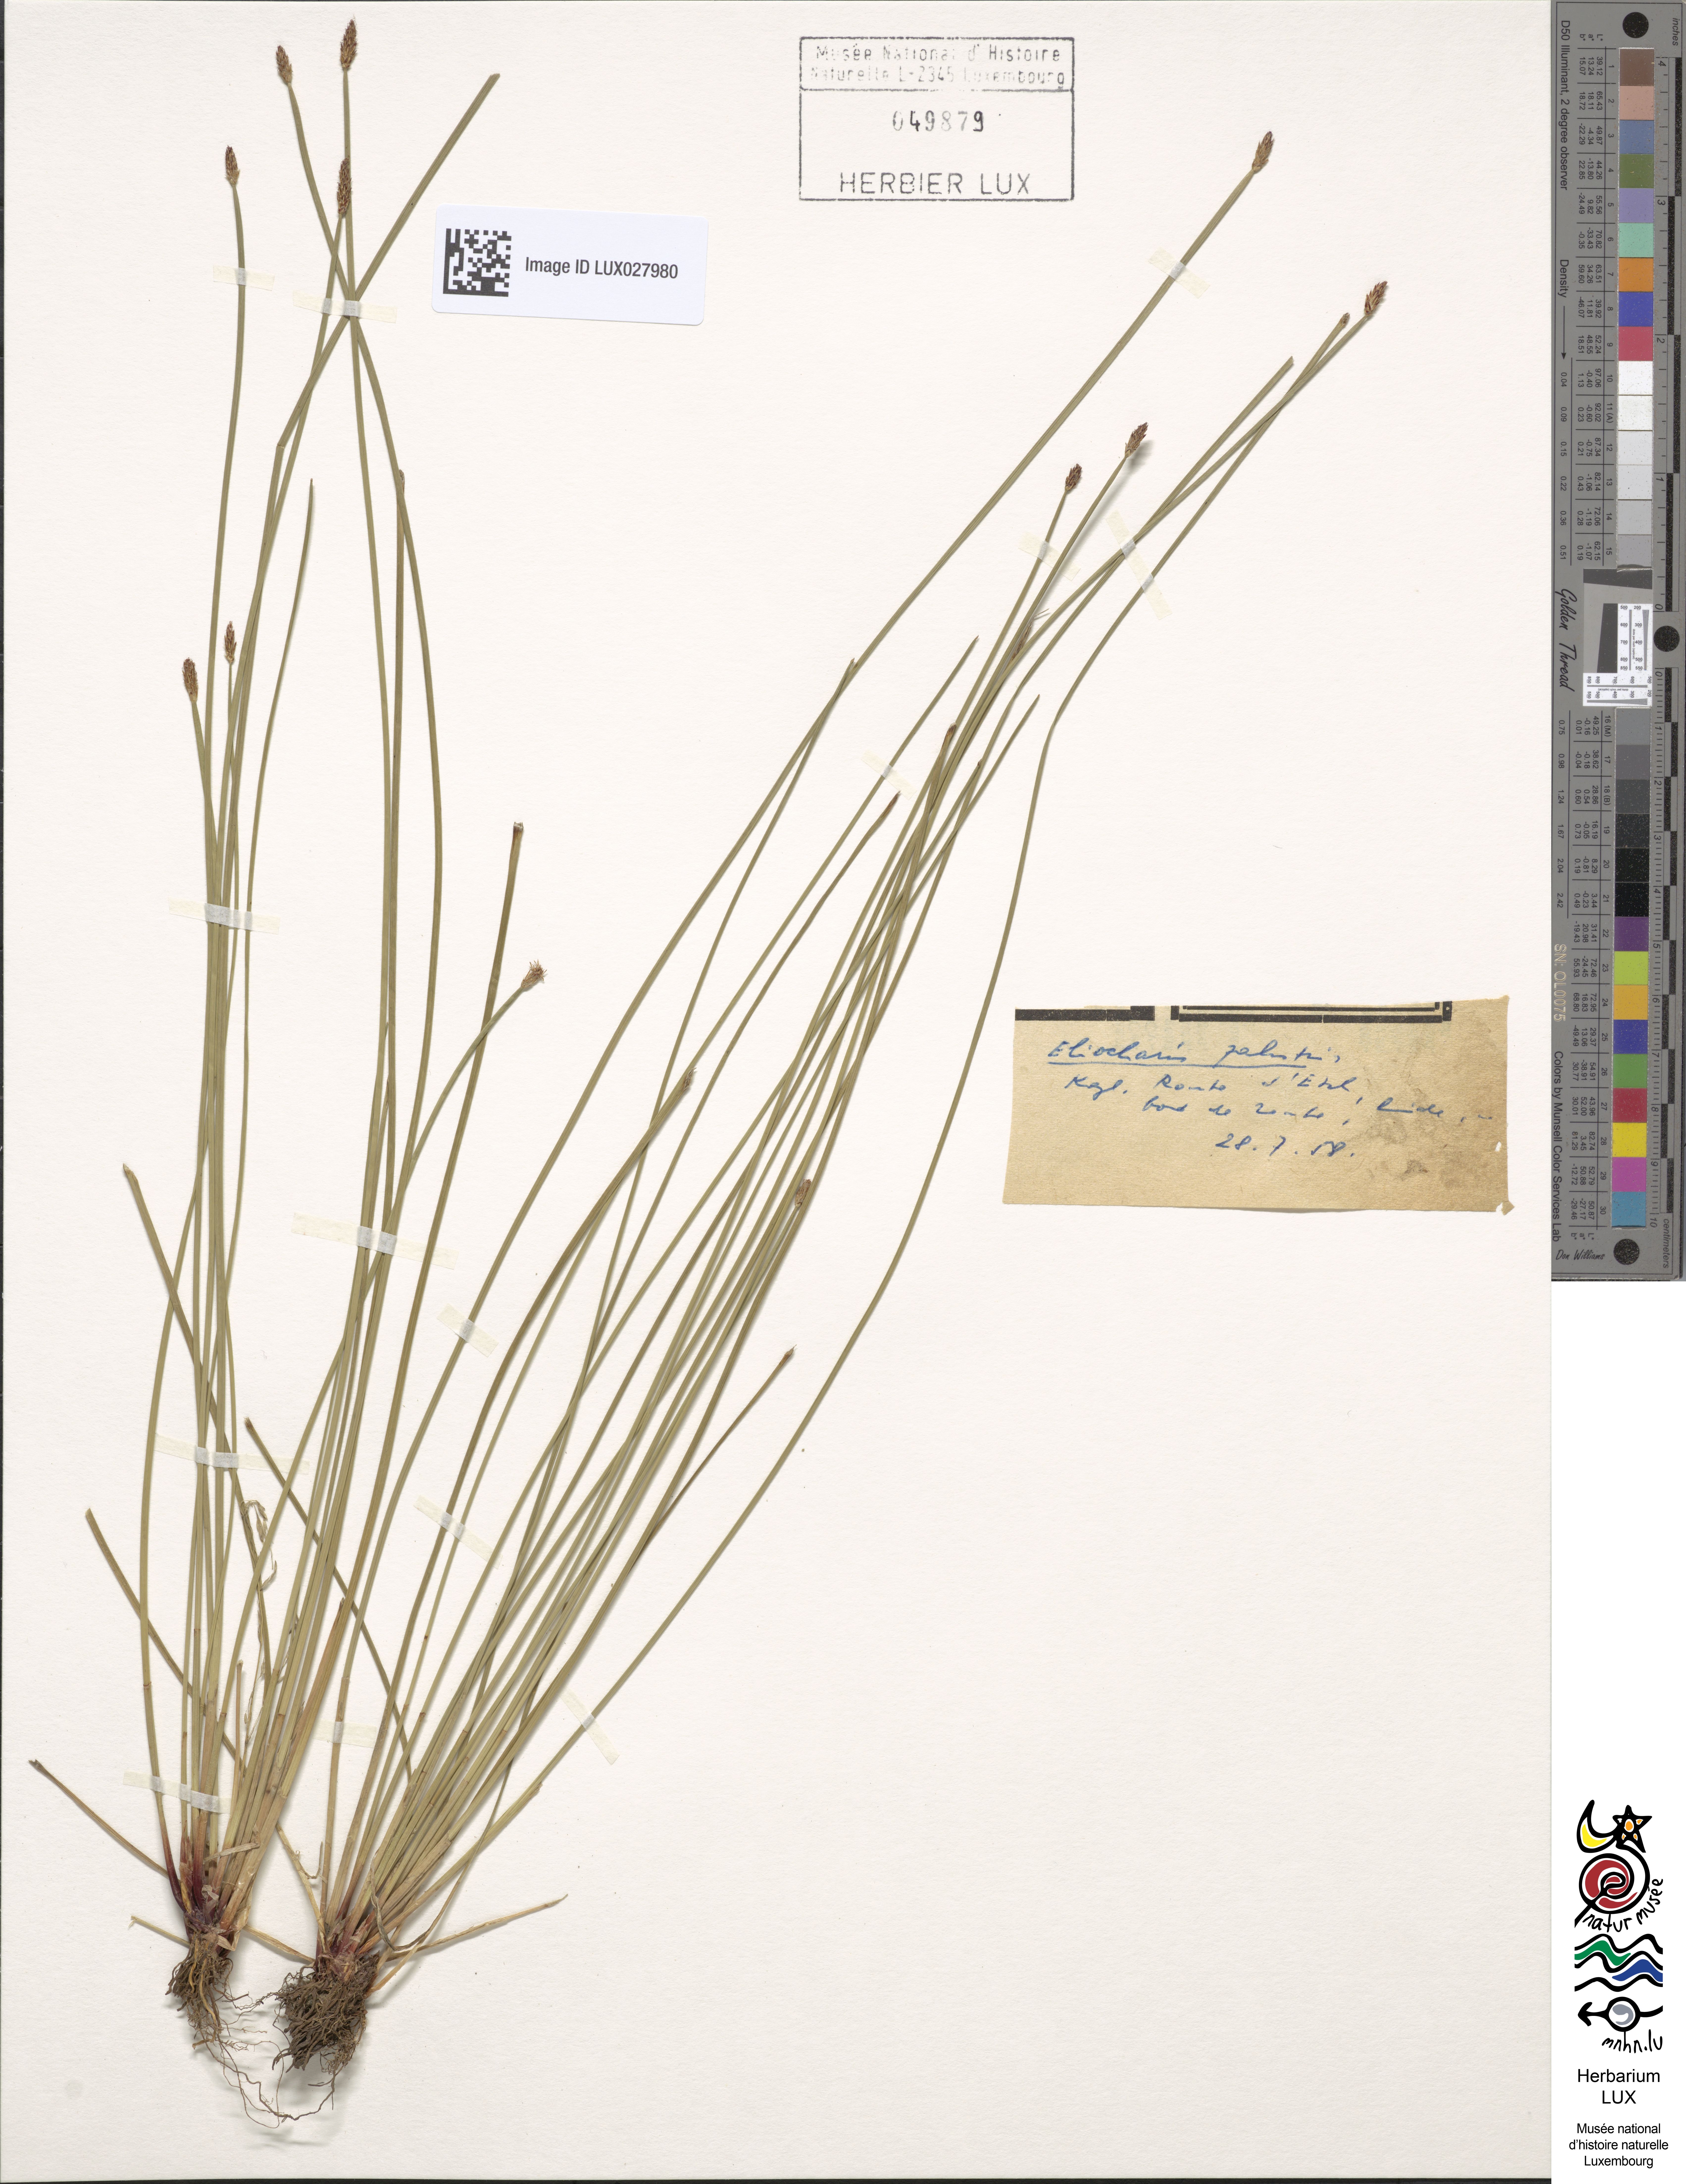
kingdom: Plantae
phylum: Tracheophyta
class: Liliopsida
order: Poales
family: Cyperaceae
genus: Eleocharis
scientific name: Eleocharis palustris
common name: Common spike-rush
